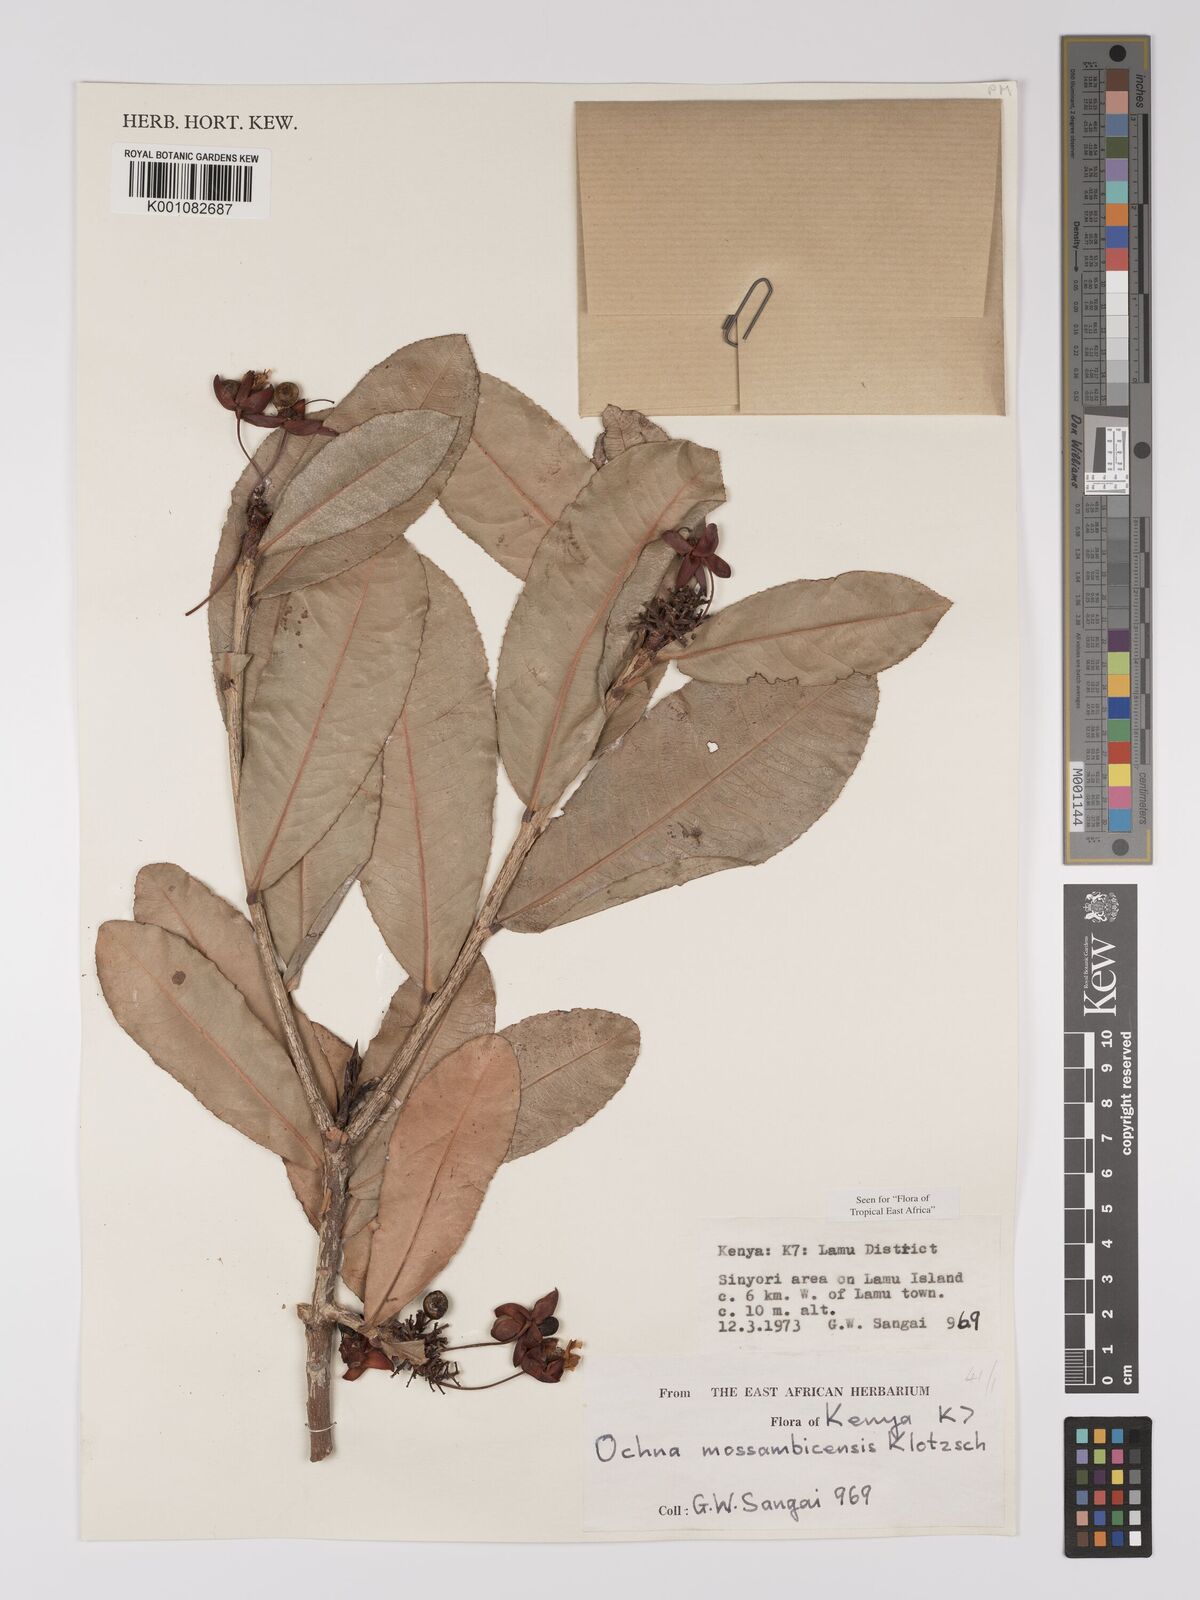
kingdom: Plantae
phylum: Tracheophyta
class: Magnoliopsida
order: Malpighiales
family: Ochnaceae
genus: Ochna
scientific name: Ochna atropurpurea
